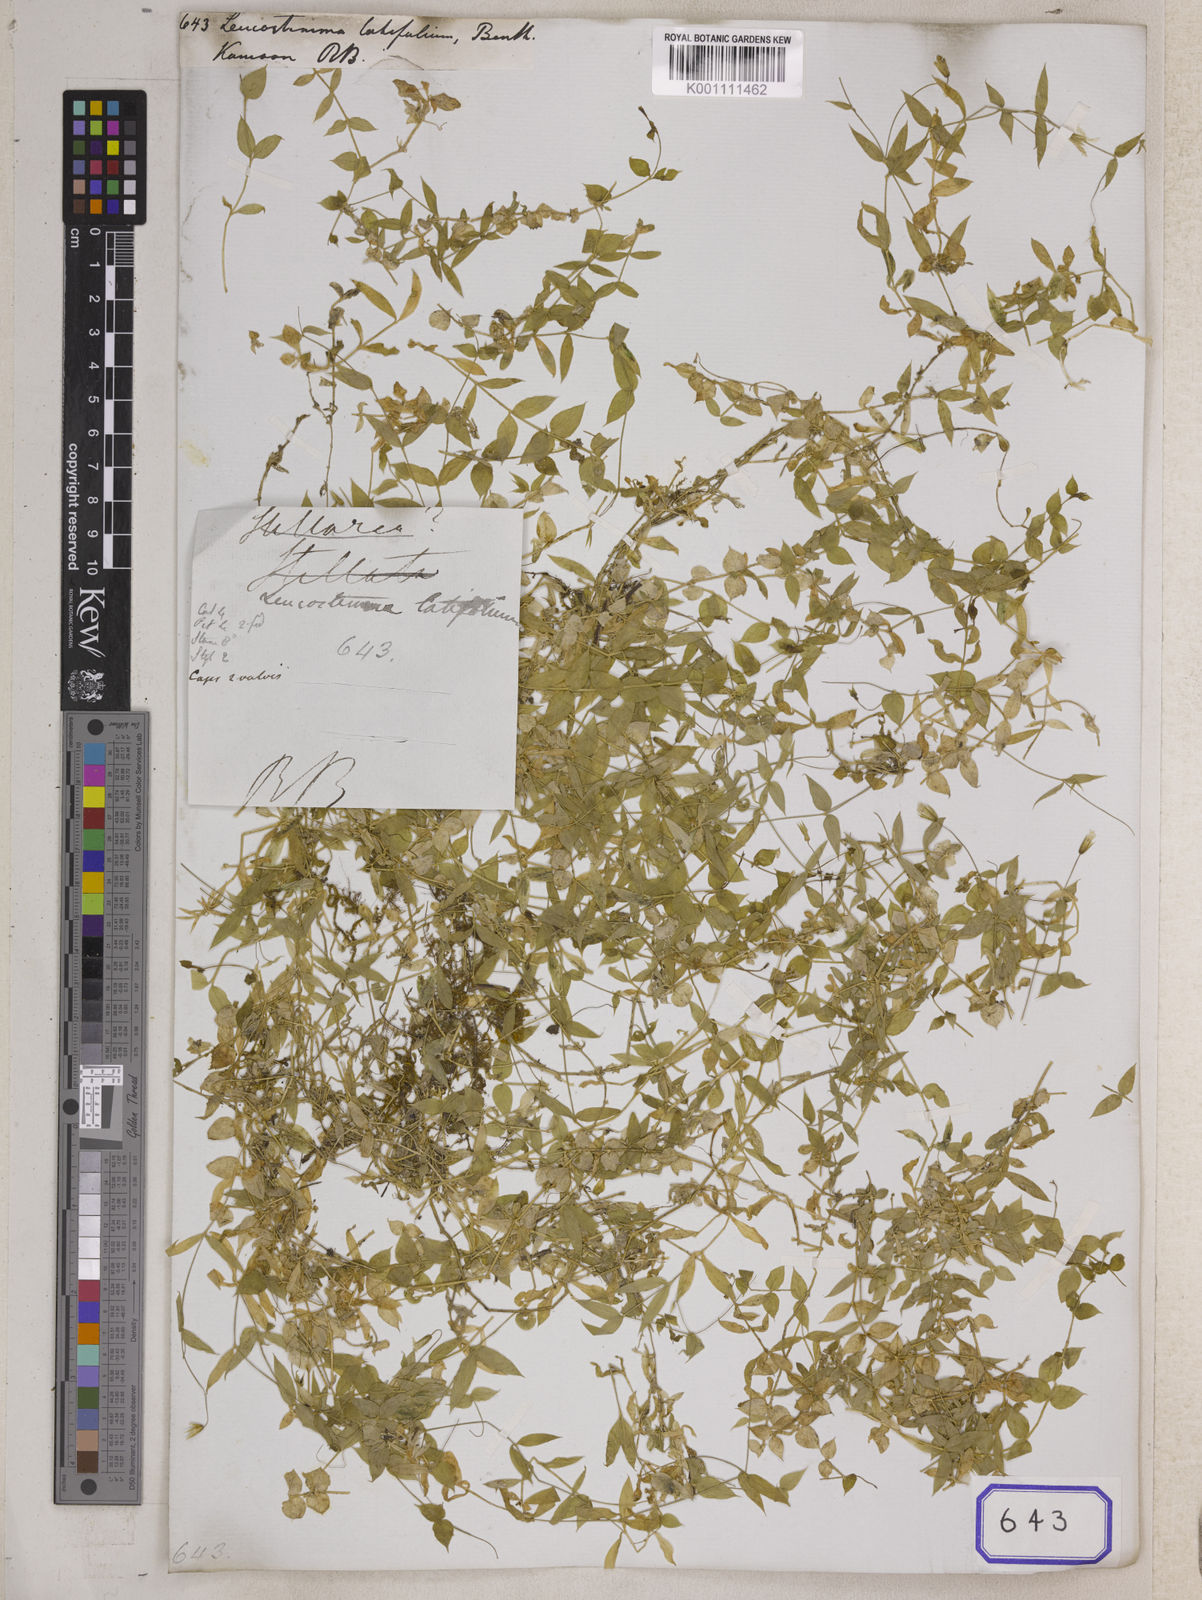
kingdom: Plantae
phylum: Tracheophyta
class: Magnoliopsida
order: Asterales
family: Asteraceae
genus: Syncarpha
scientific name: Syncarpha
